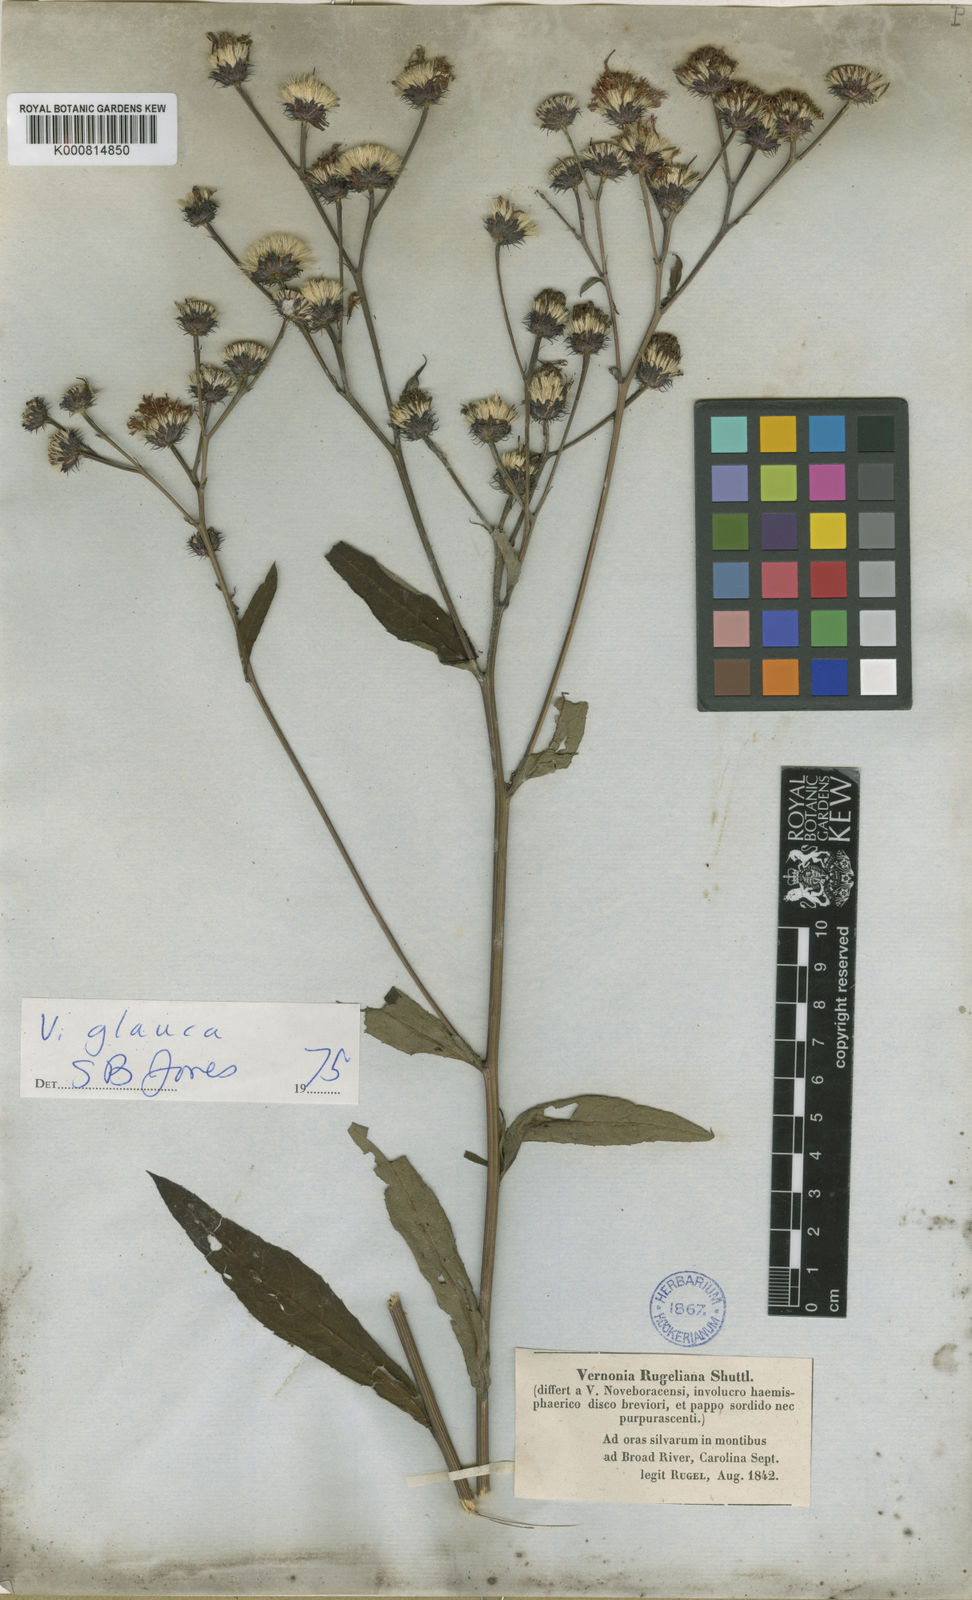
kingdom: Plantae
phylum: Tracheophyta
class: Magnoliopsida
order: Asterales
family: Asteraceae
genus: Vernonia
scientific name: Vernonia glauca
